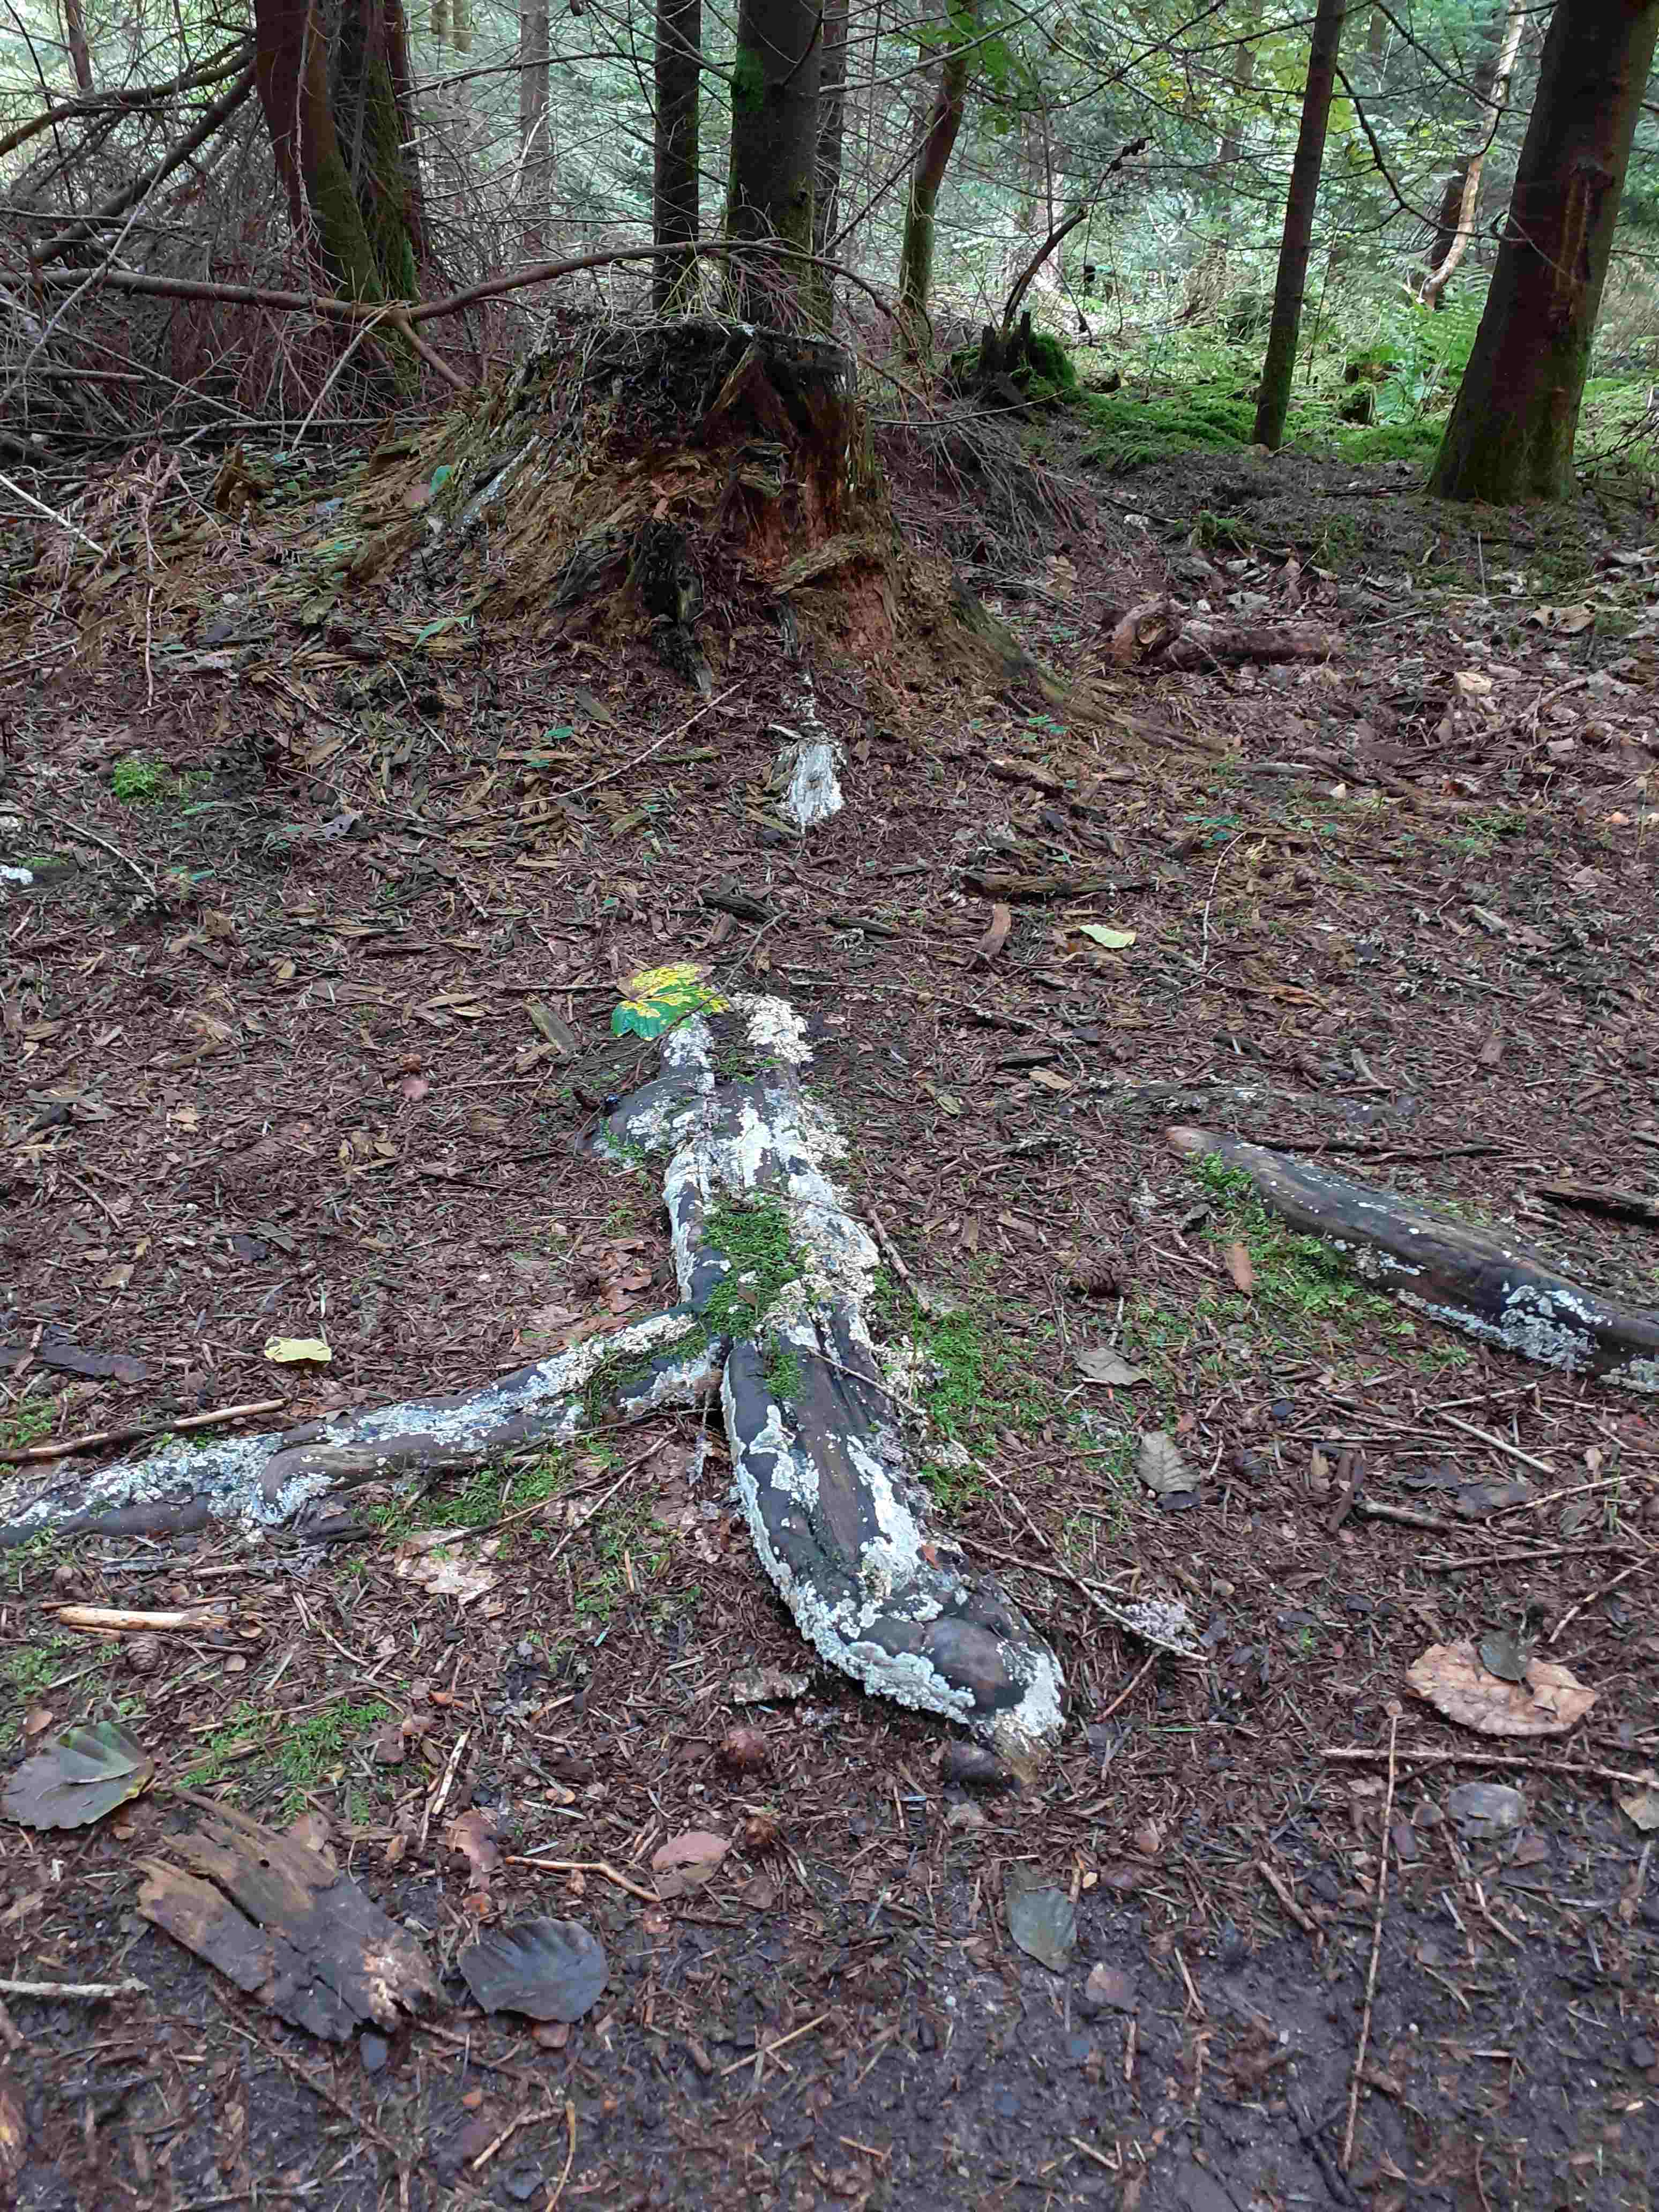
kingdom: Fungi
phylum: Basidiomycota
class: Agaricomycetes
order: Russulales
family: Peniophoraceae
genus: Gloiothele
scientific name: Gloiothele citrina
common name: citronskorpe
